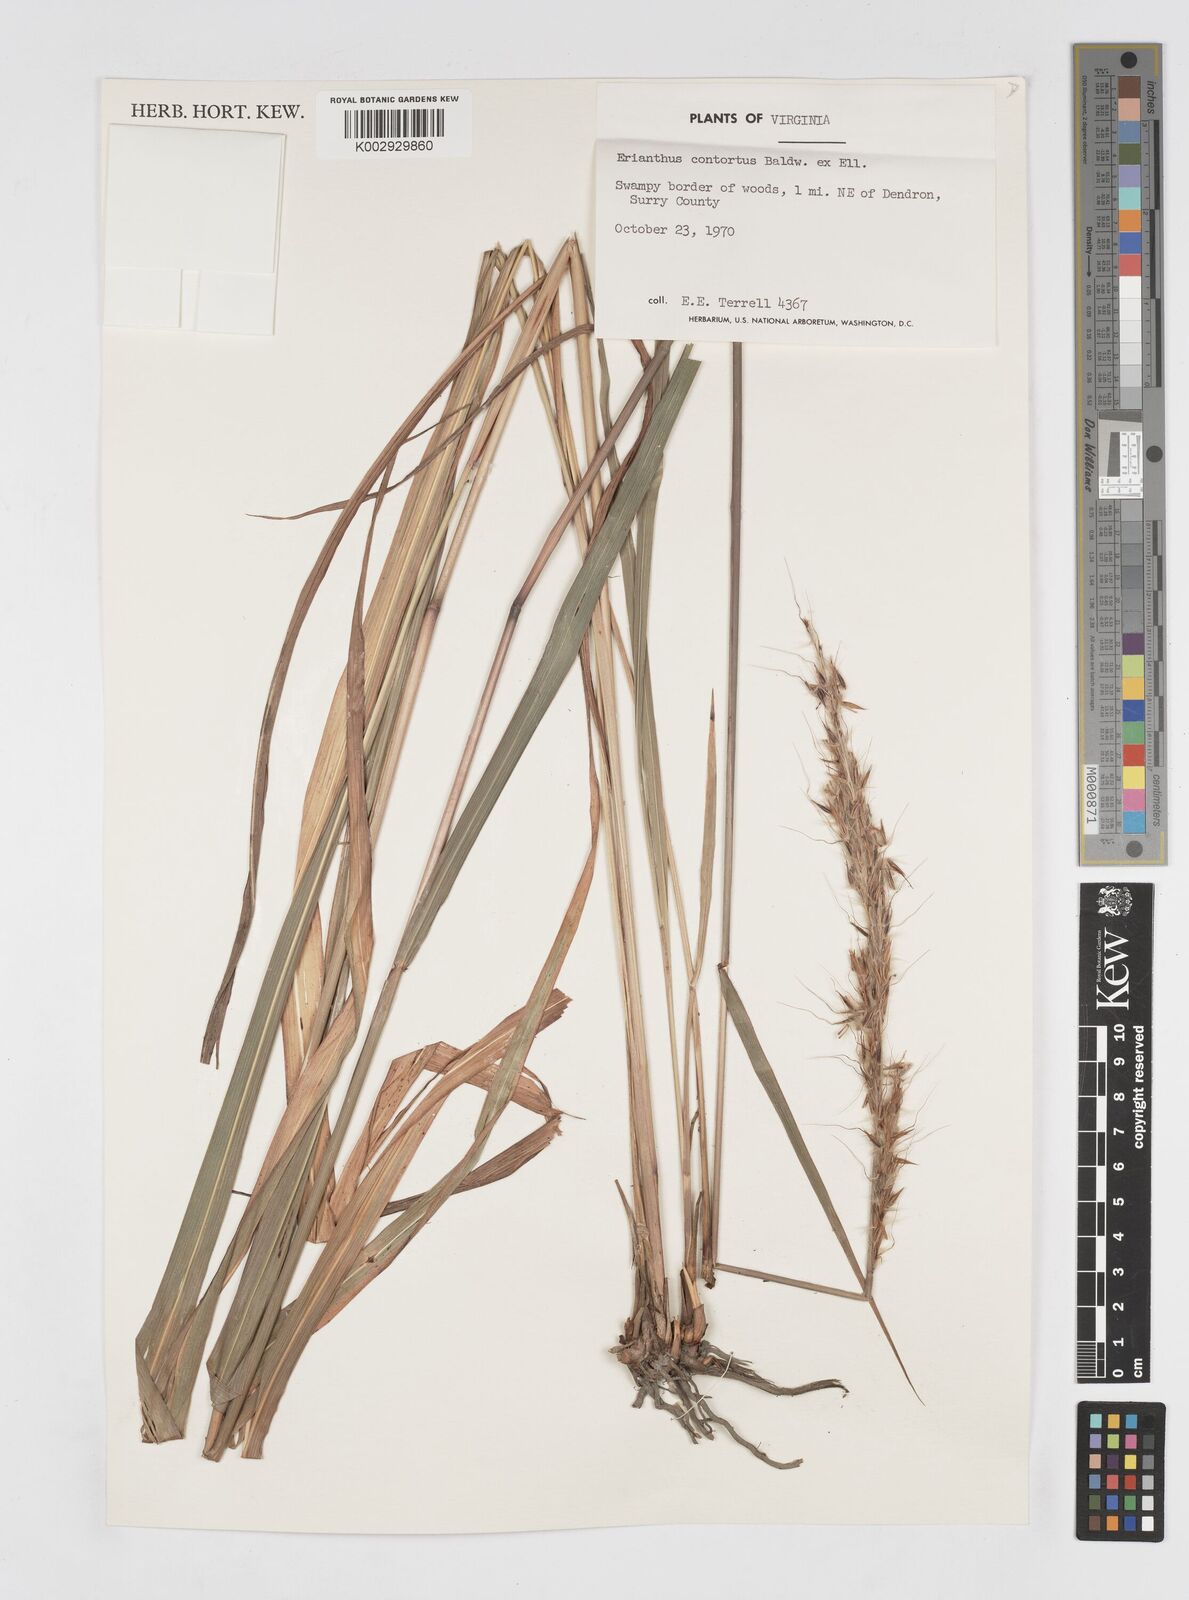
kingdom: Plantae
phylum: Tracheophyta
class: Liliopsida
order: Poales
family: Poaceae
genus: Erianthus
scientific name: Erianthus contortus
